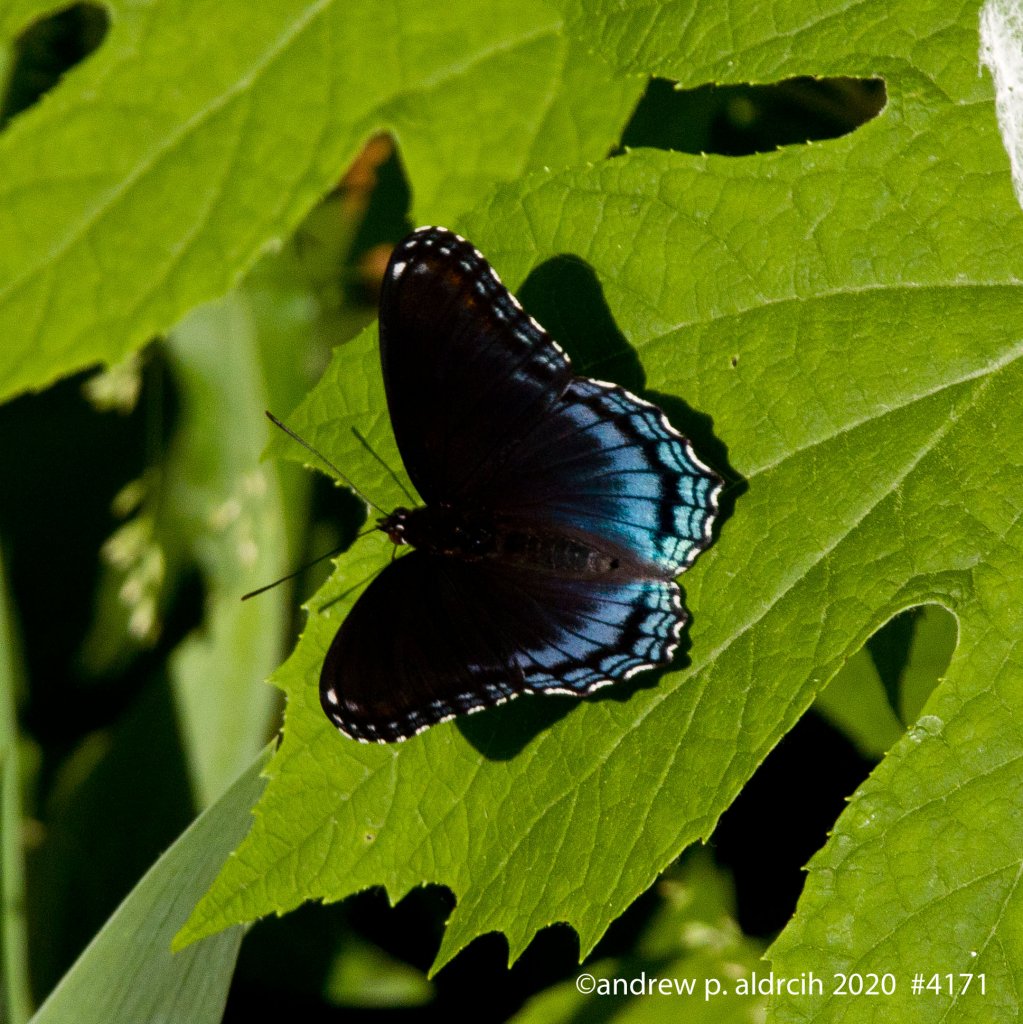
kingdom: Animalia
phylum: Arthropoda
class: Insecta
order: Lepidoptera
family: Nymphalidae
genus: Limenitis
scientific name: Limenitis astyanax
